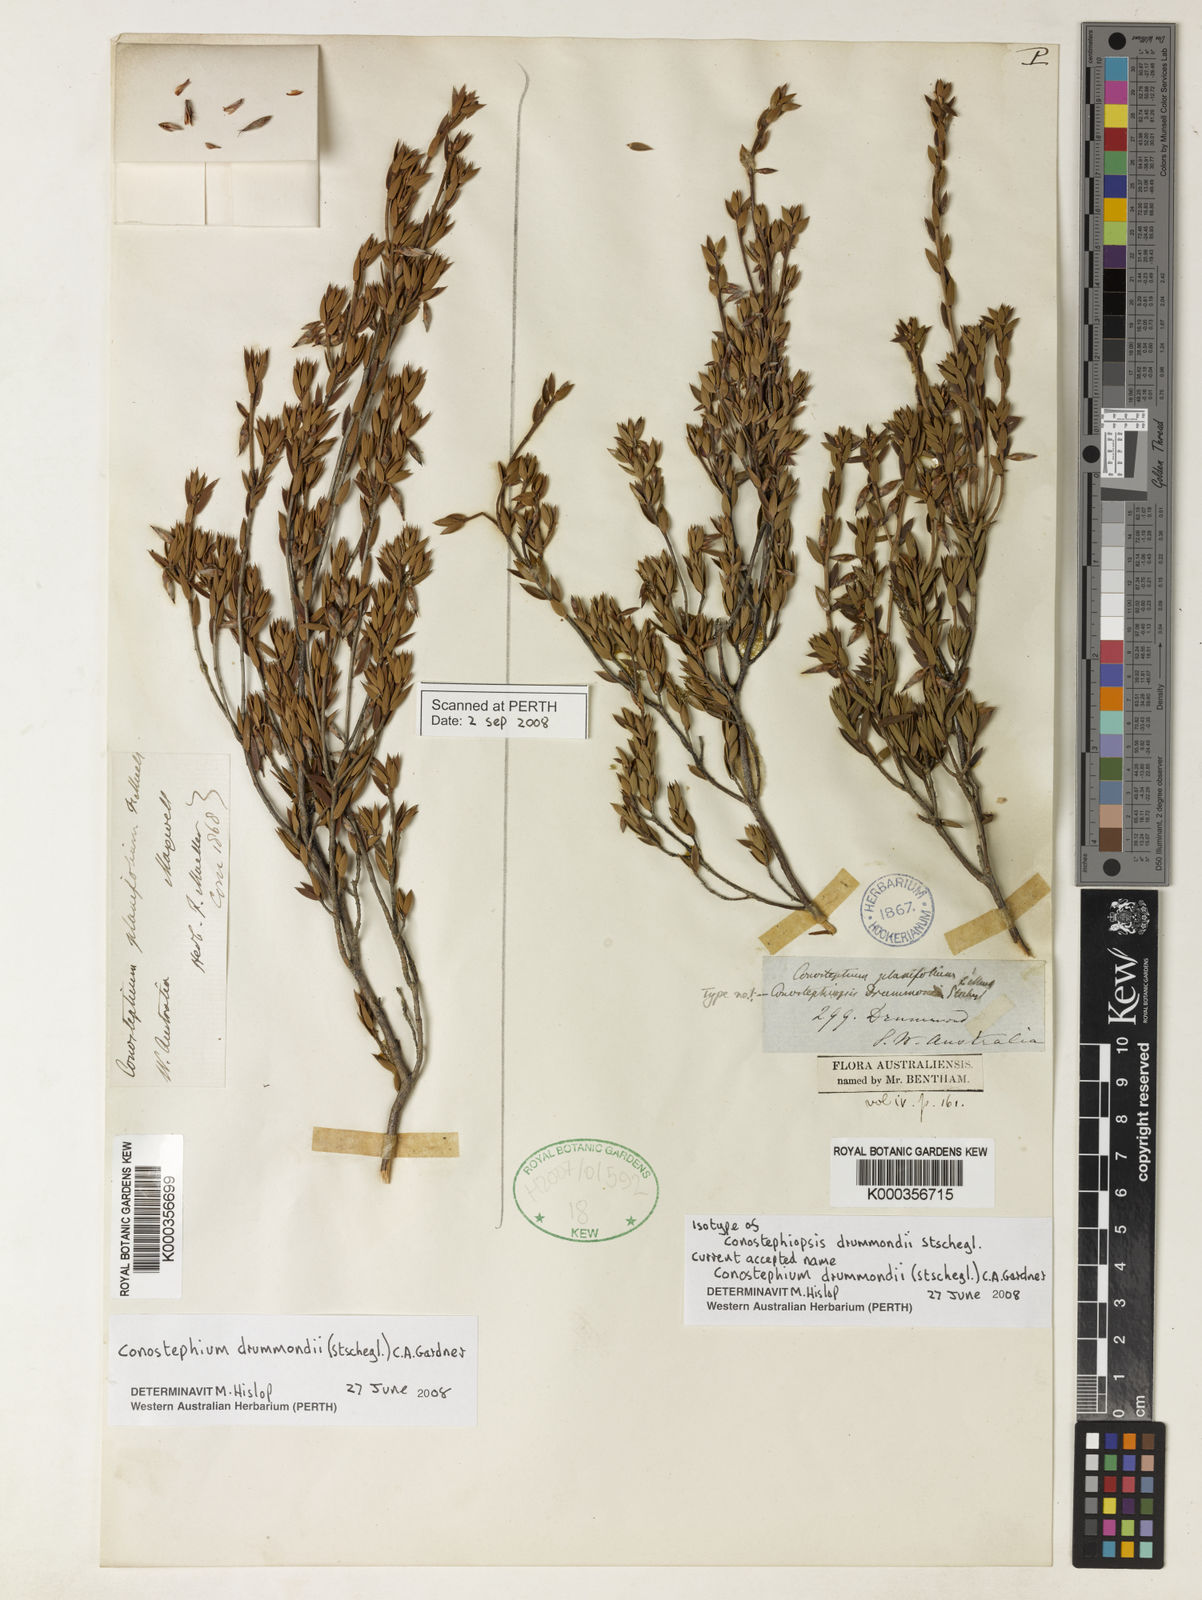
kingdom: Plantae
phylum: Tracheophyta
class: Magnoliopsida
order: Ericales
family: Ericaceae
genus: Conostephium
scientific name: Conostephium drummondii
